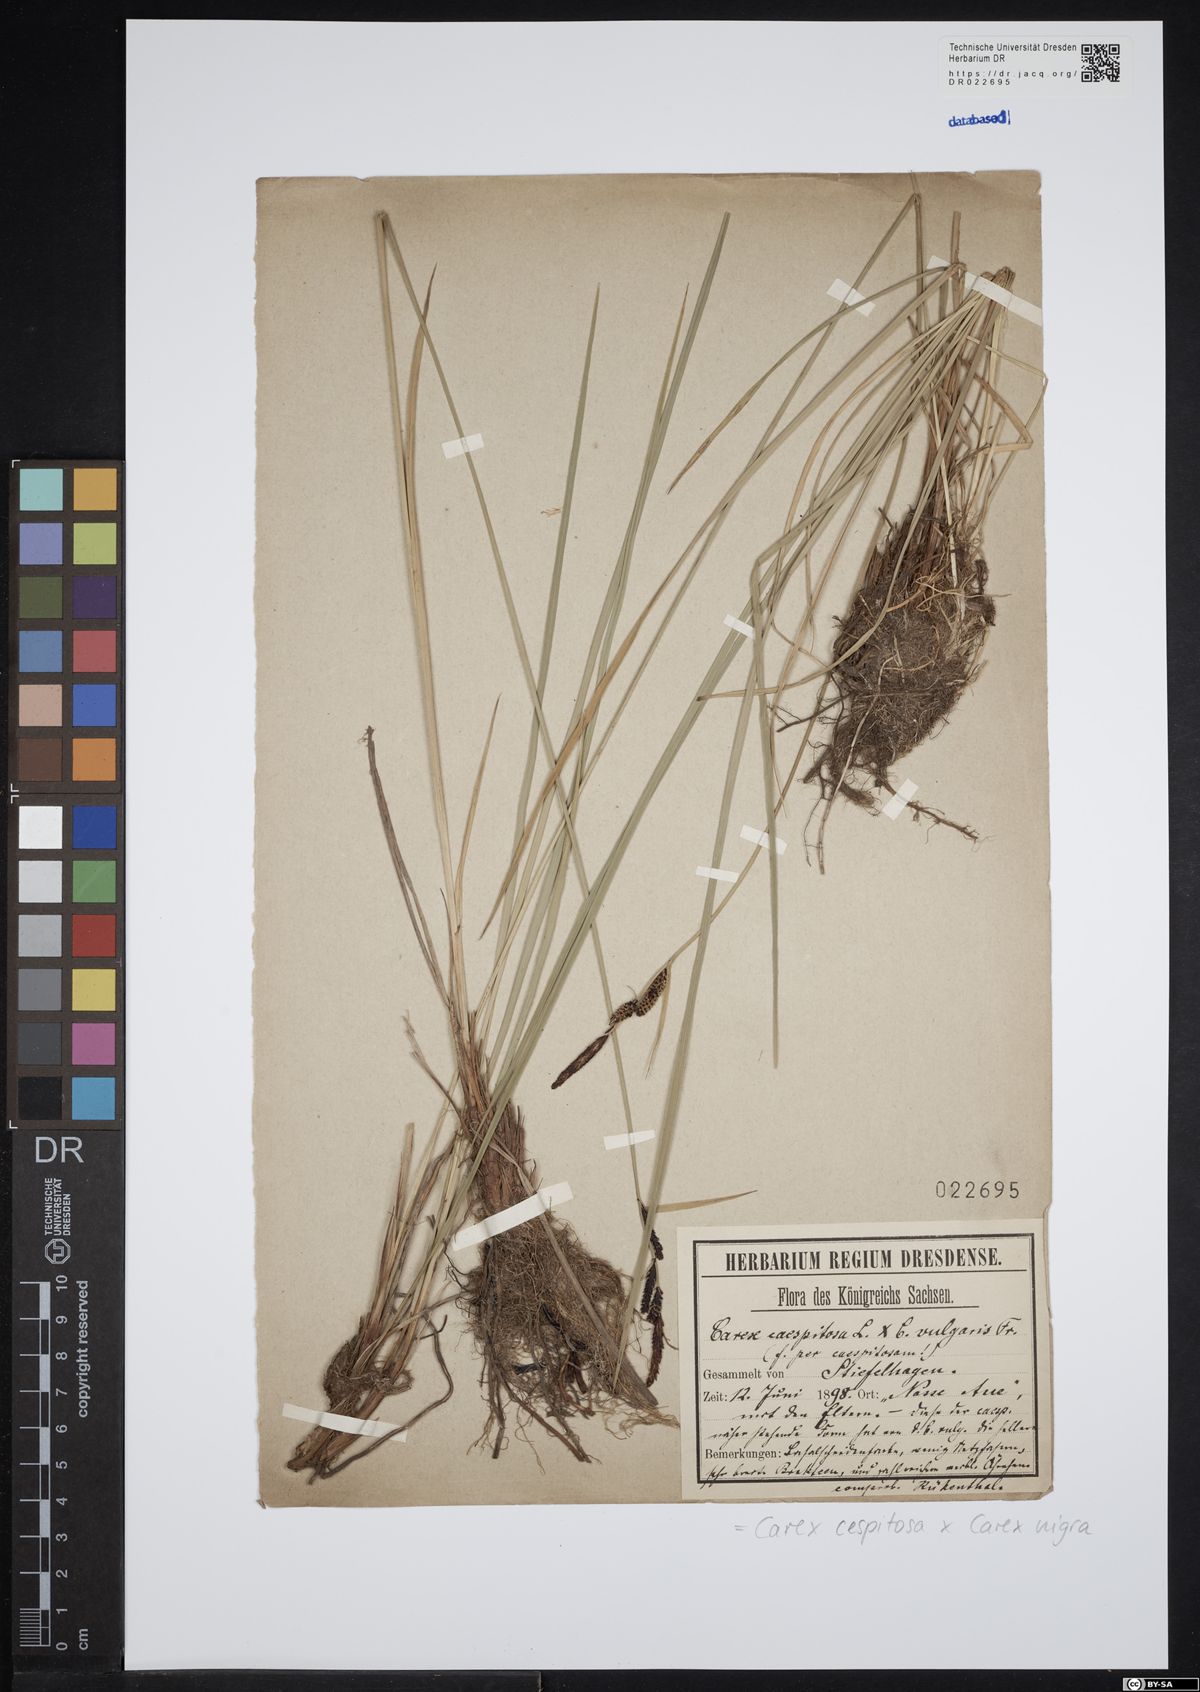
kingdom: Plantae
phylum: Tracheophyta
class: Liliopsida
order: Poales
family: Cyperaceae
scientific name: Cyperaceae
